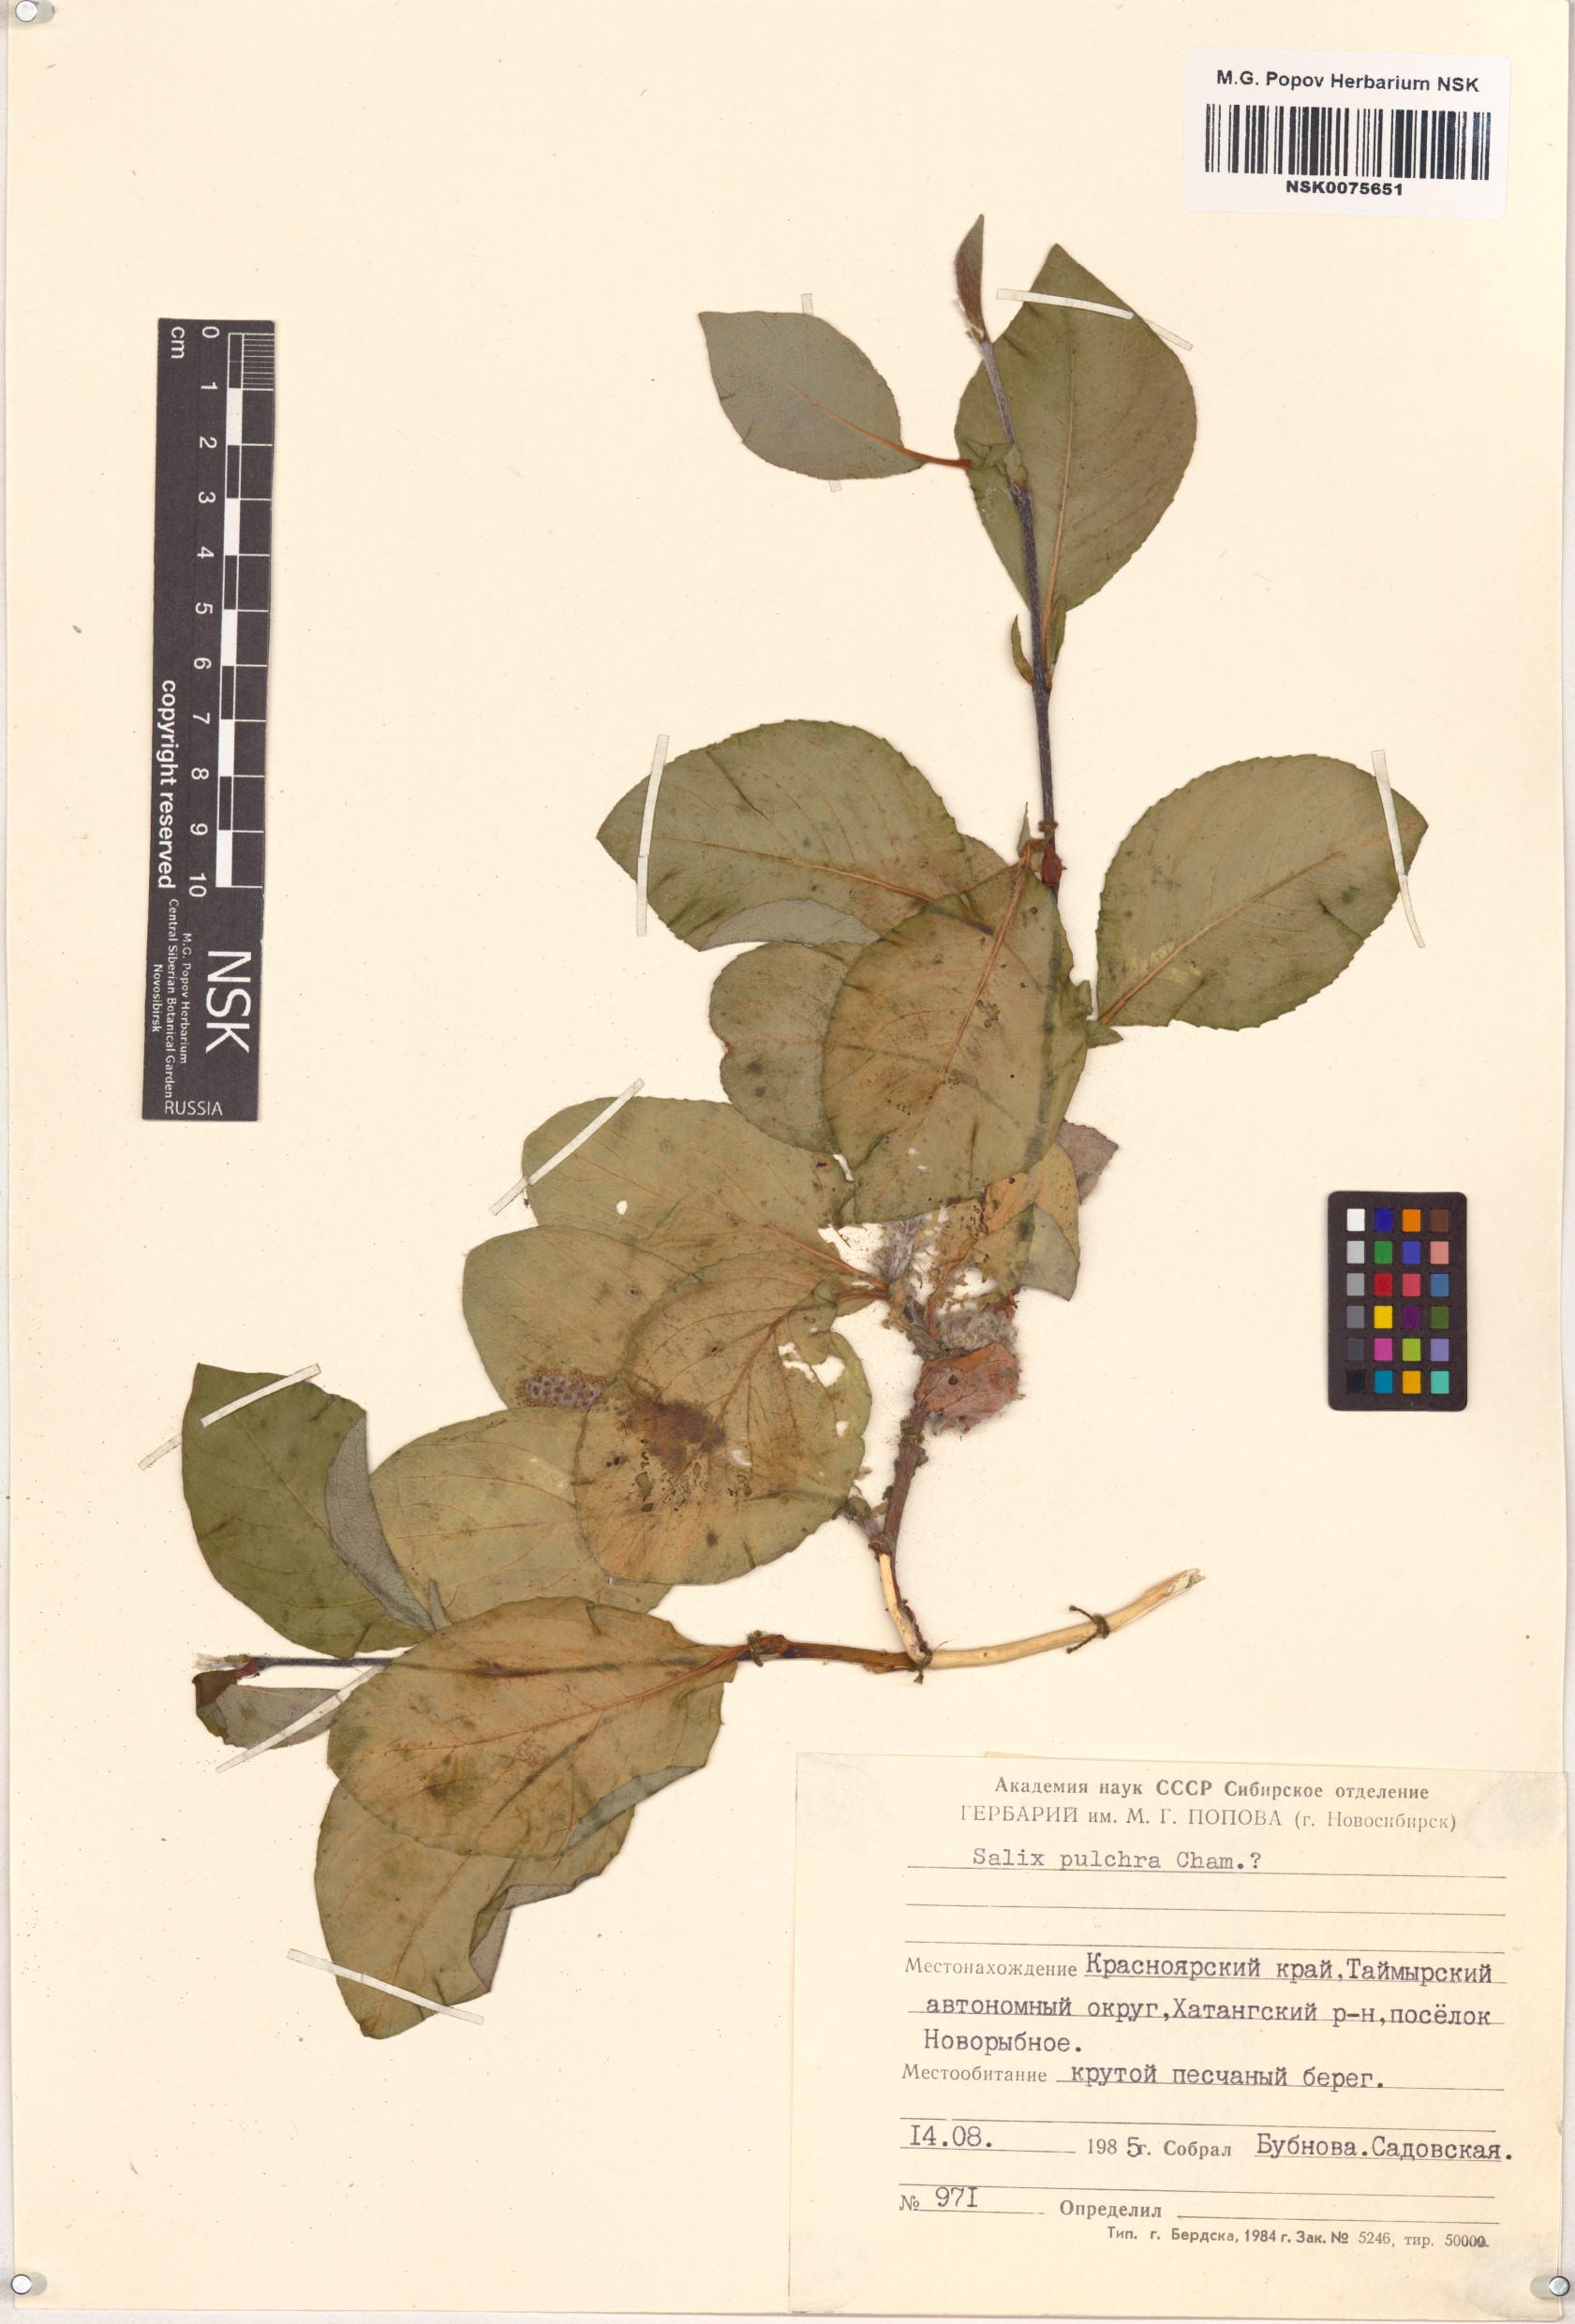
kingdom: Plantae
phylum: Tracheophyta
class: Magnoliopsida
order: Malpighiales
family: Salicaceae
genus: Salix
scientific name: Salix pulchra
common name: Diamond-leaved willow
